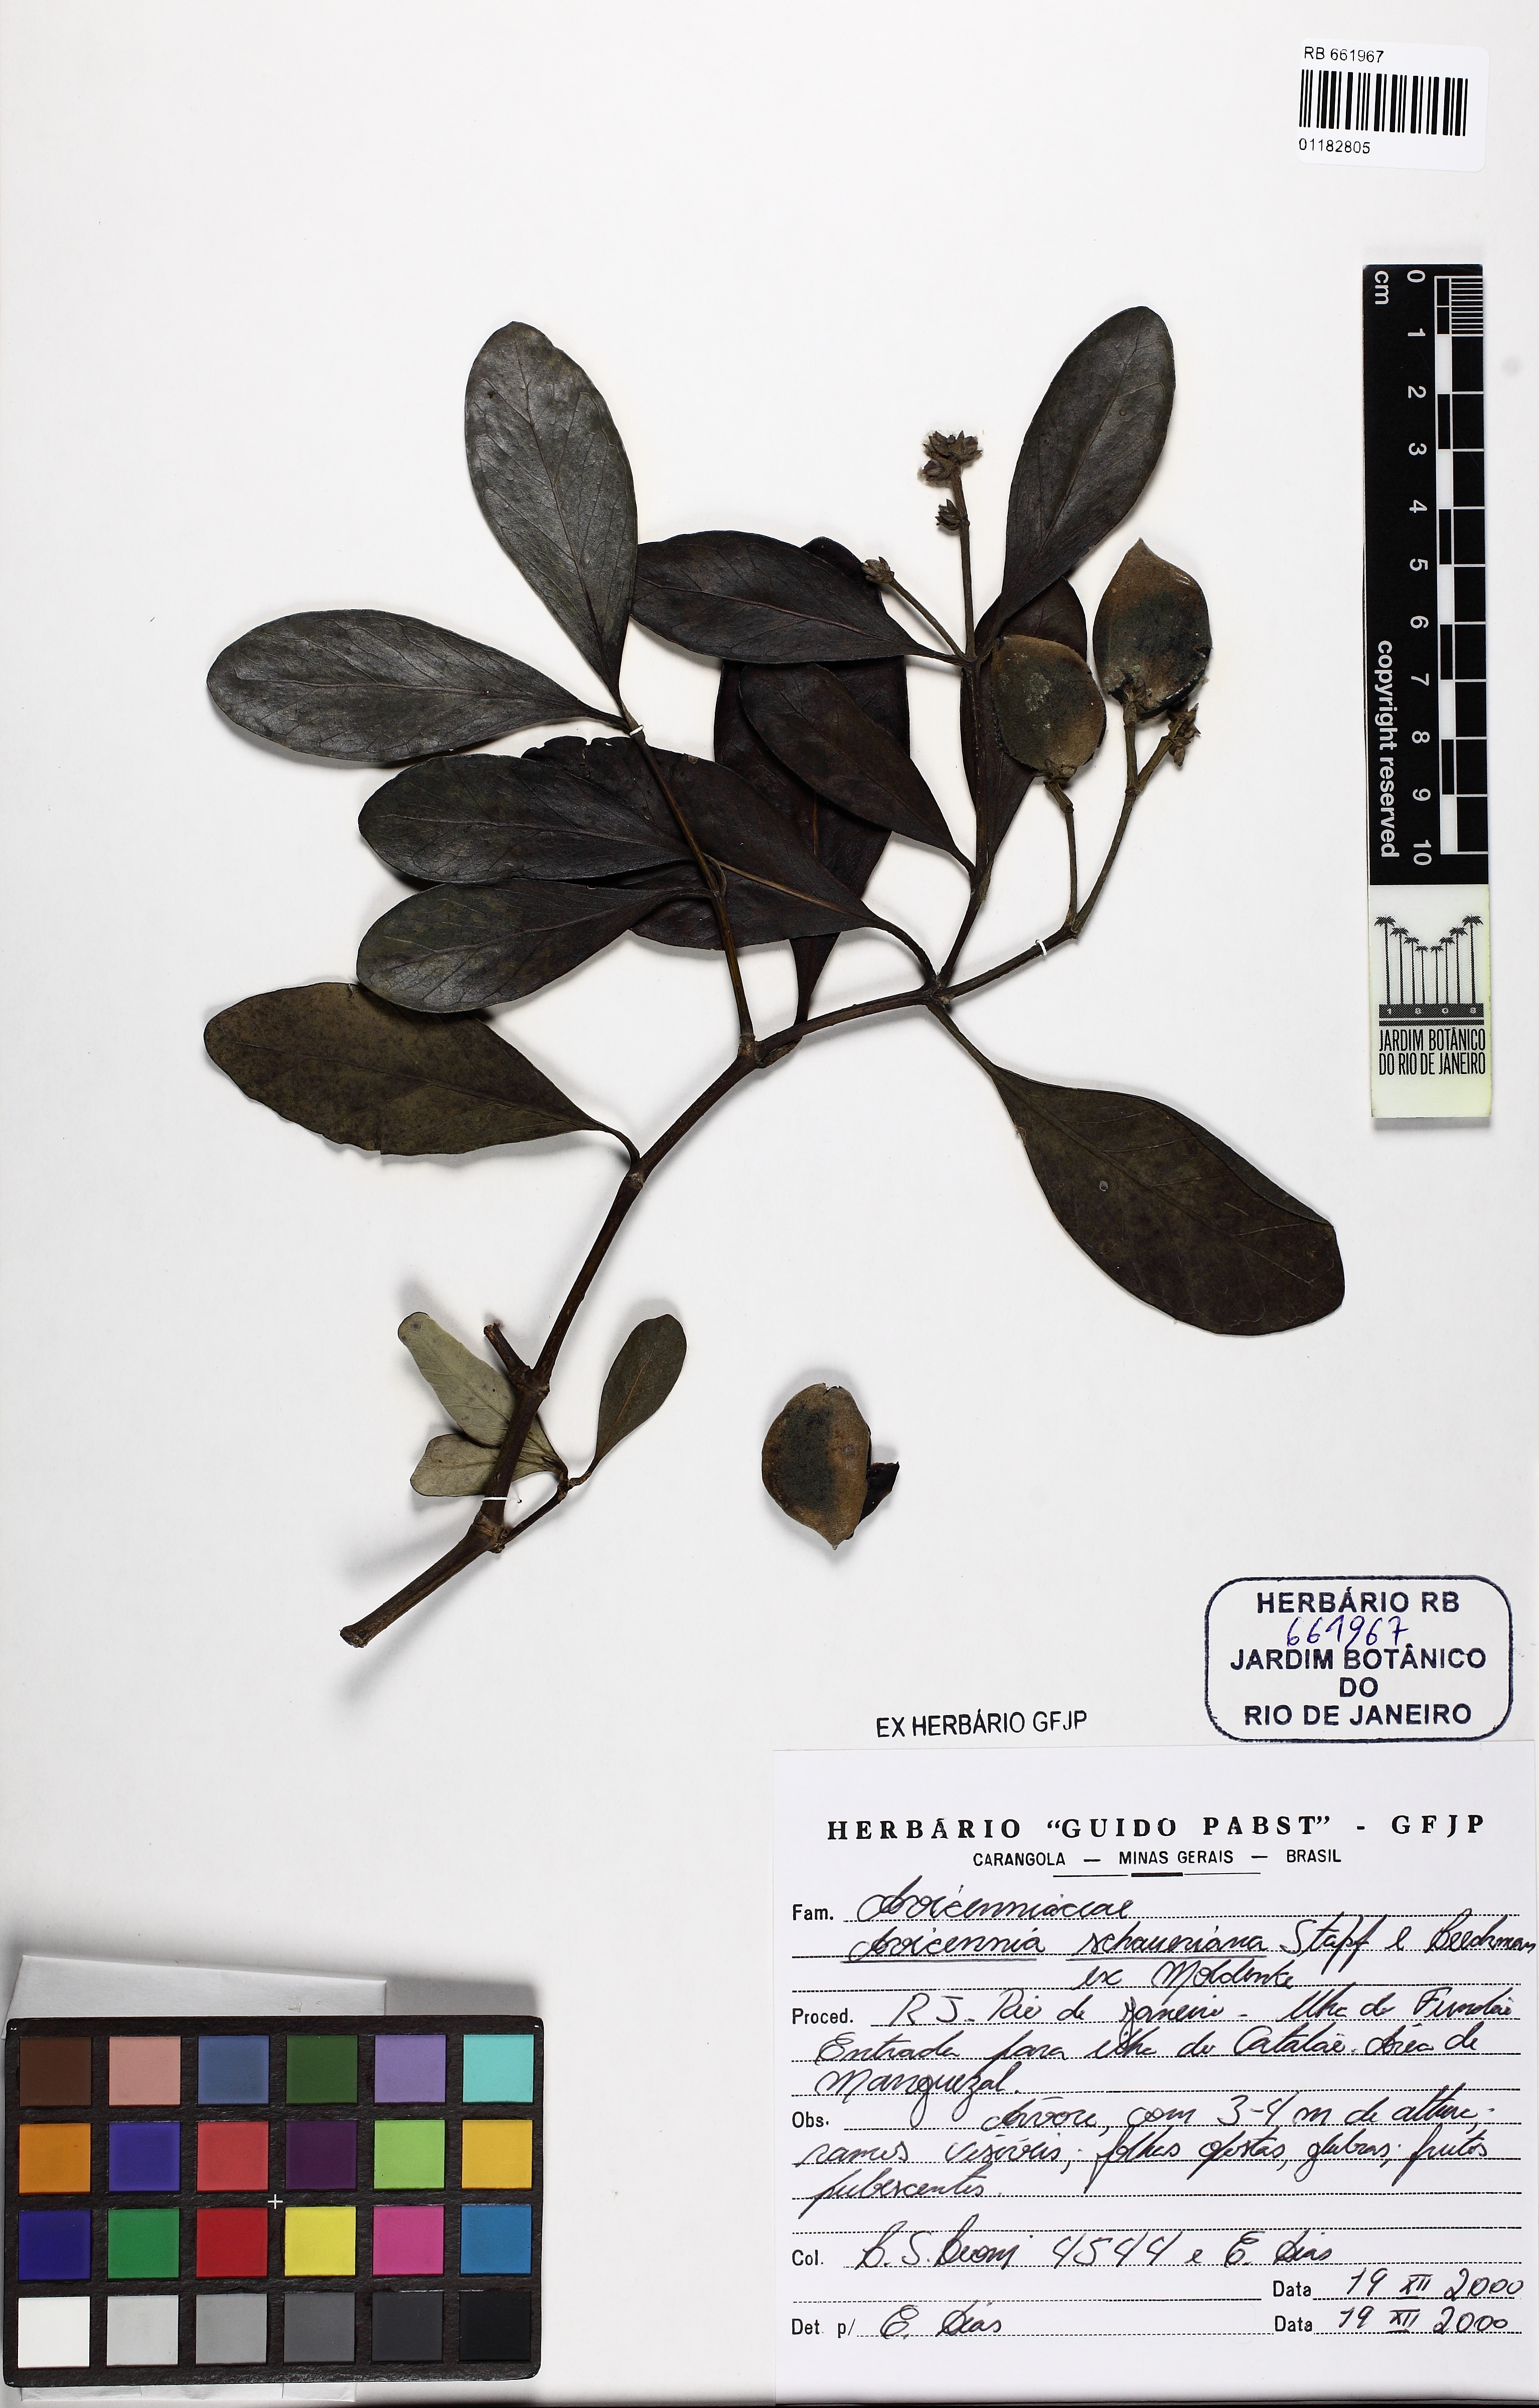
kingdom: Plantae
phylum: Tracheophyta
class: Magnoliopsida
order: Lamiales
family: Acanthaceae
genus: Avicennia
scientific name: Avicennia schaueriana
